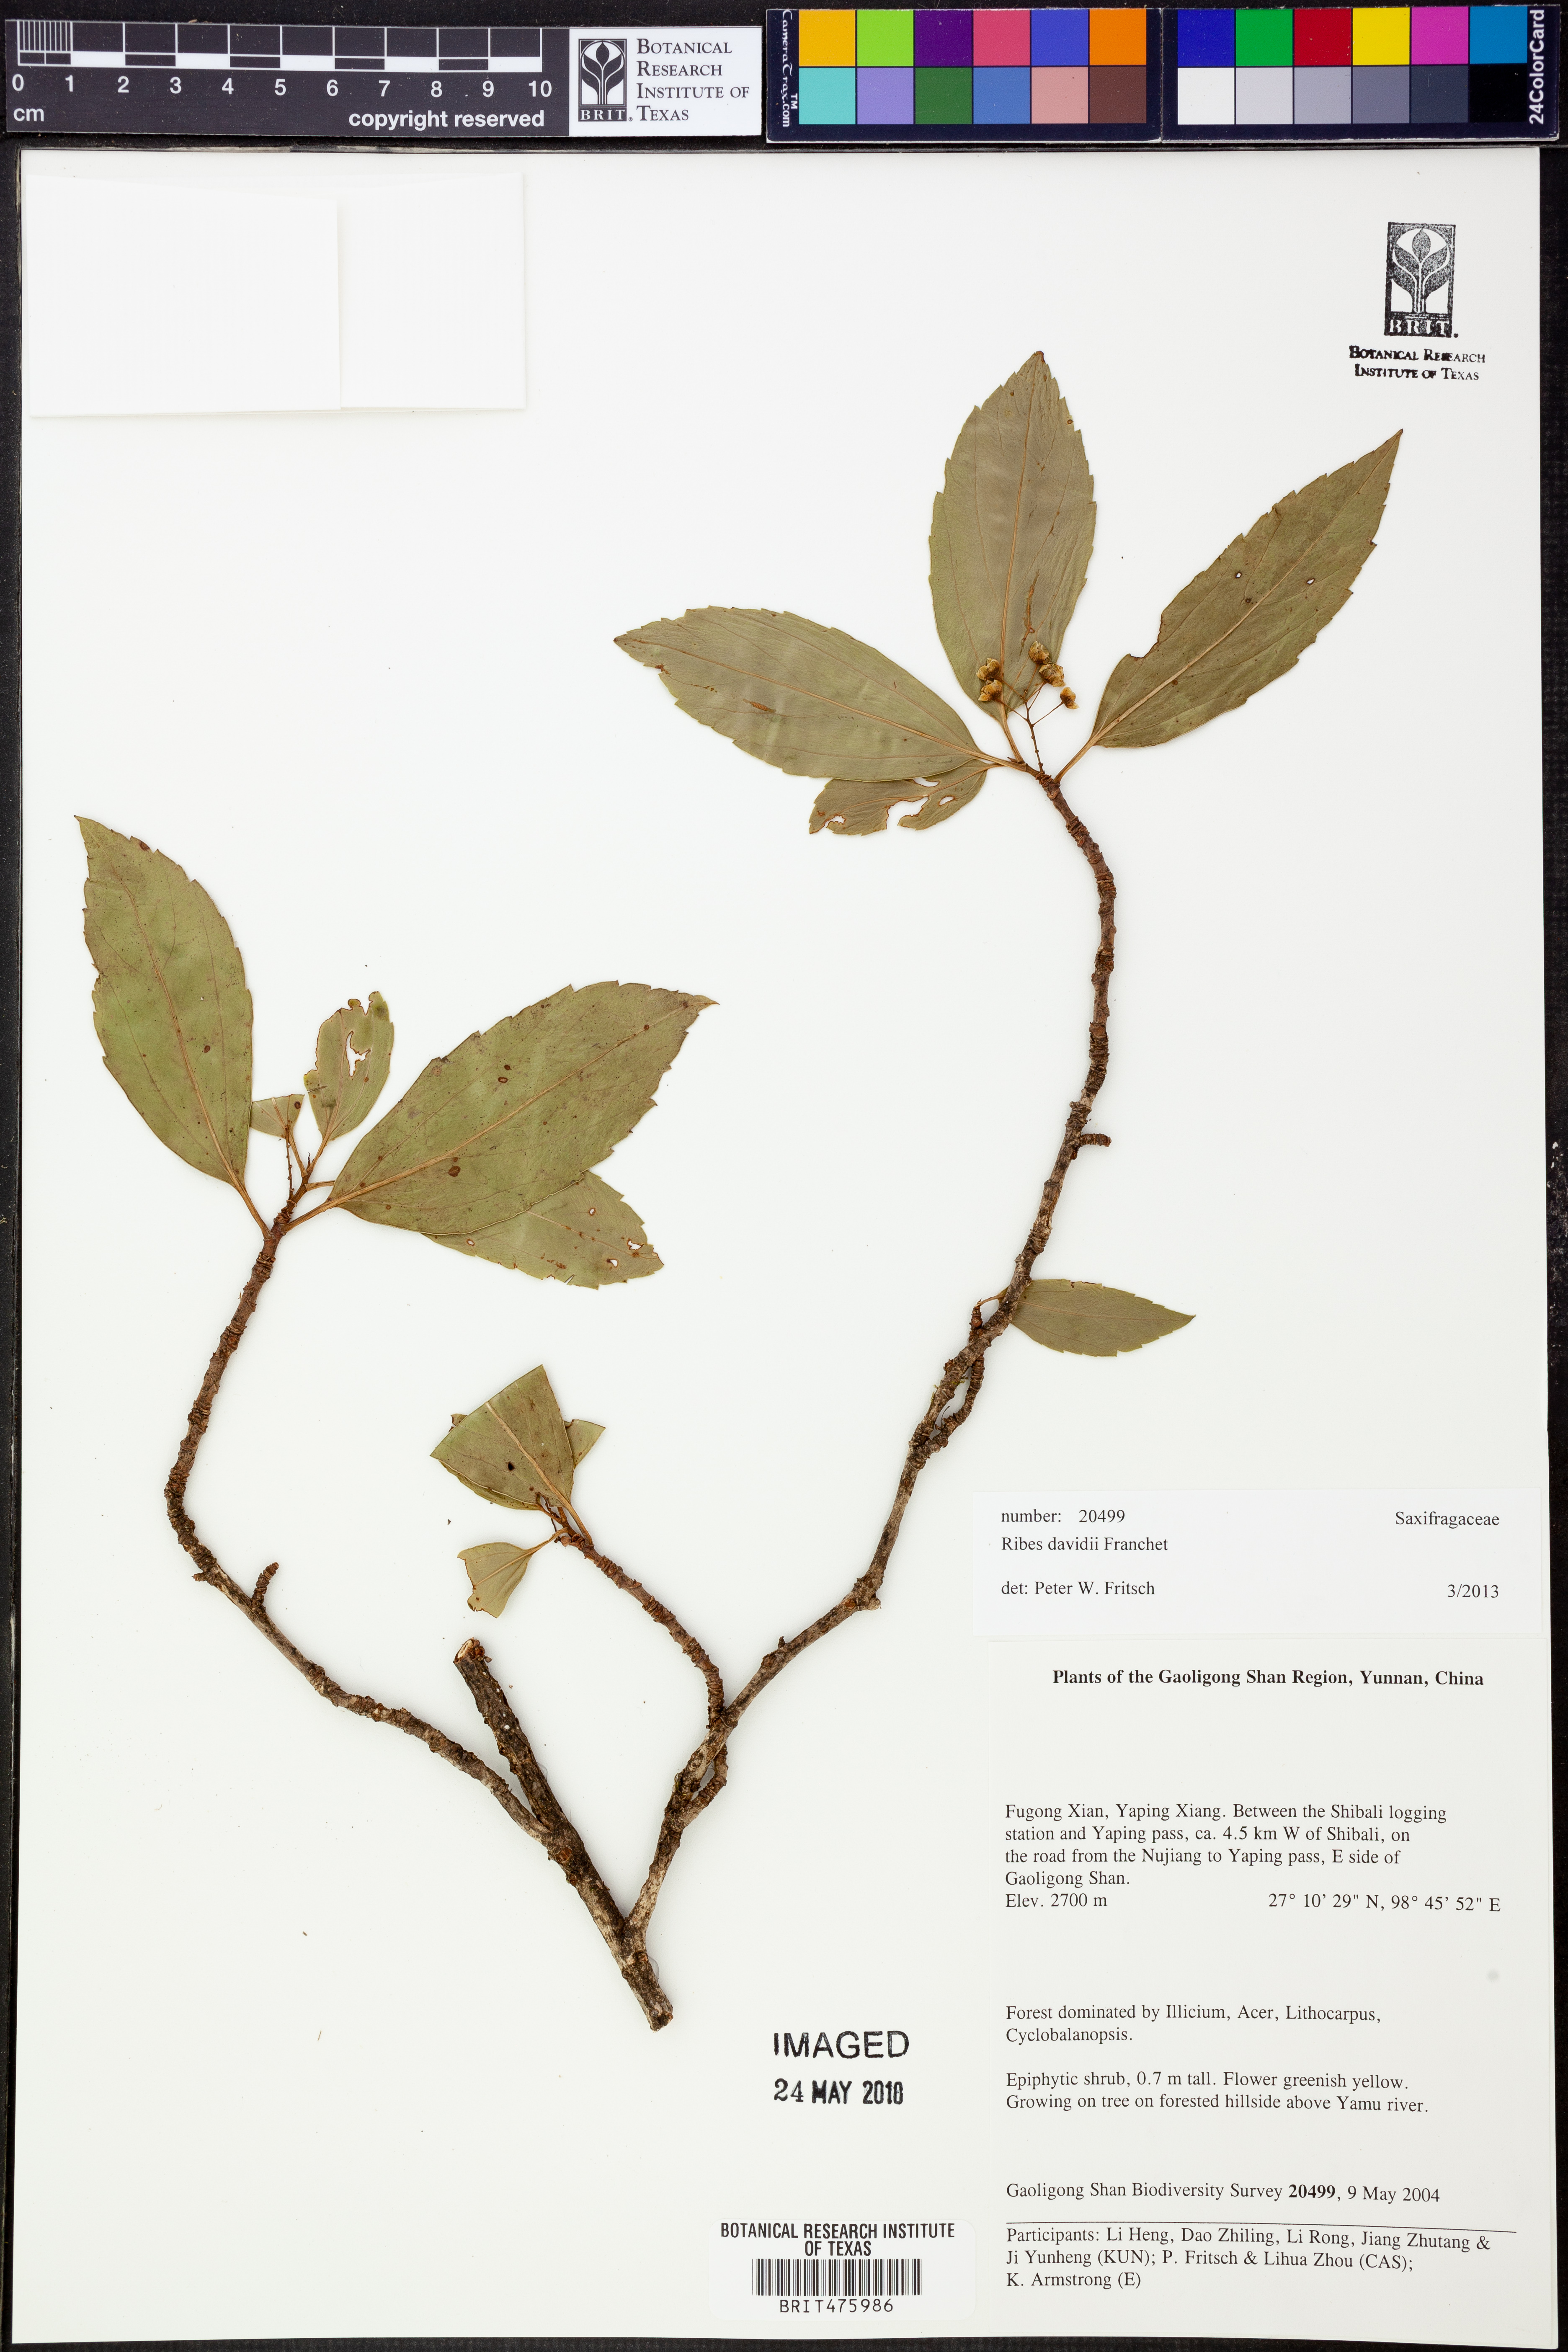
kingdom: Plantae
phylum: Tracheophyta
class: Magnoliopsida
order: Saxifragales
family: Grossulariaceae
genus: Ribes
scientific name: Ribes davidii
